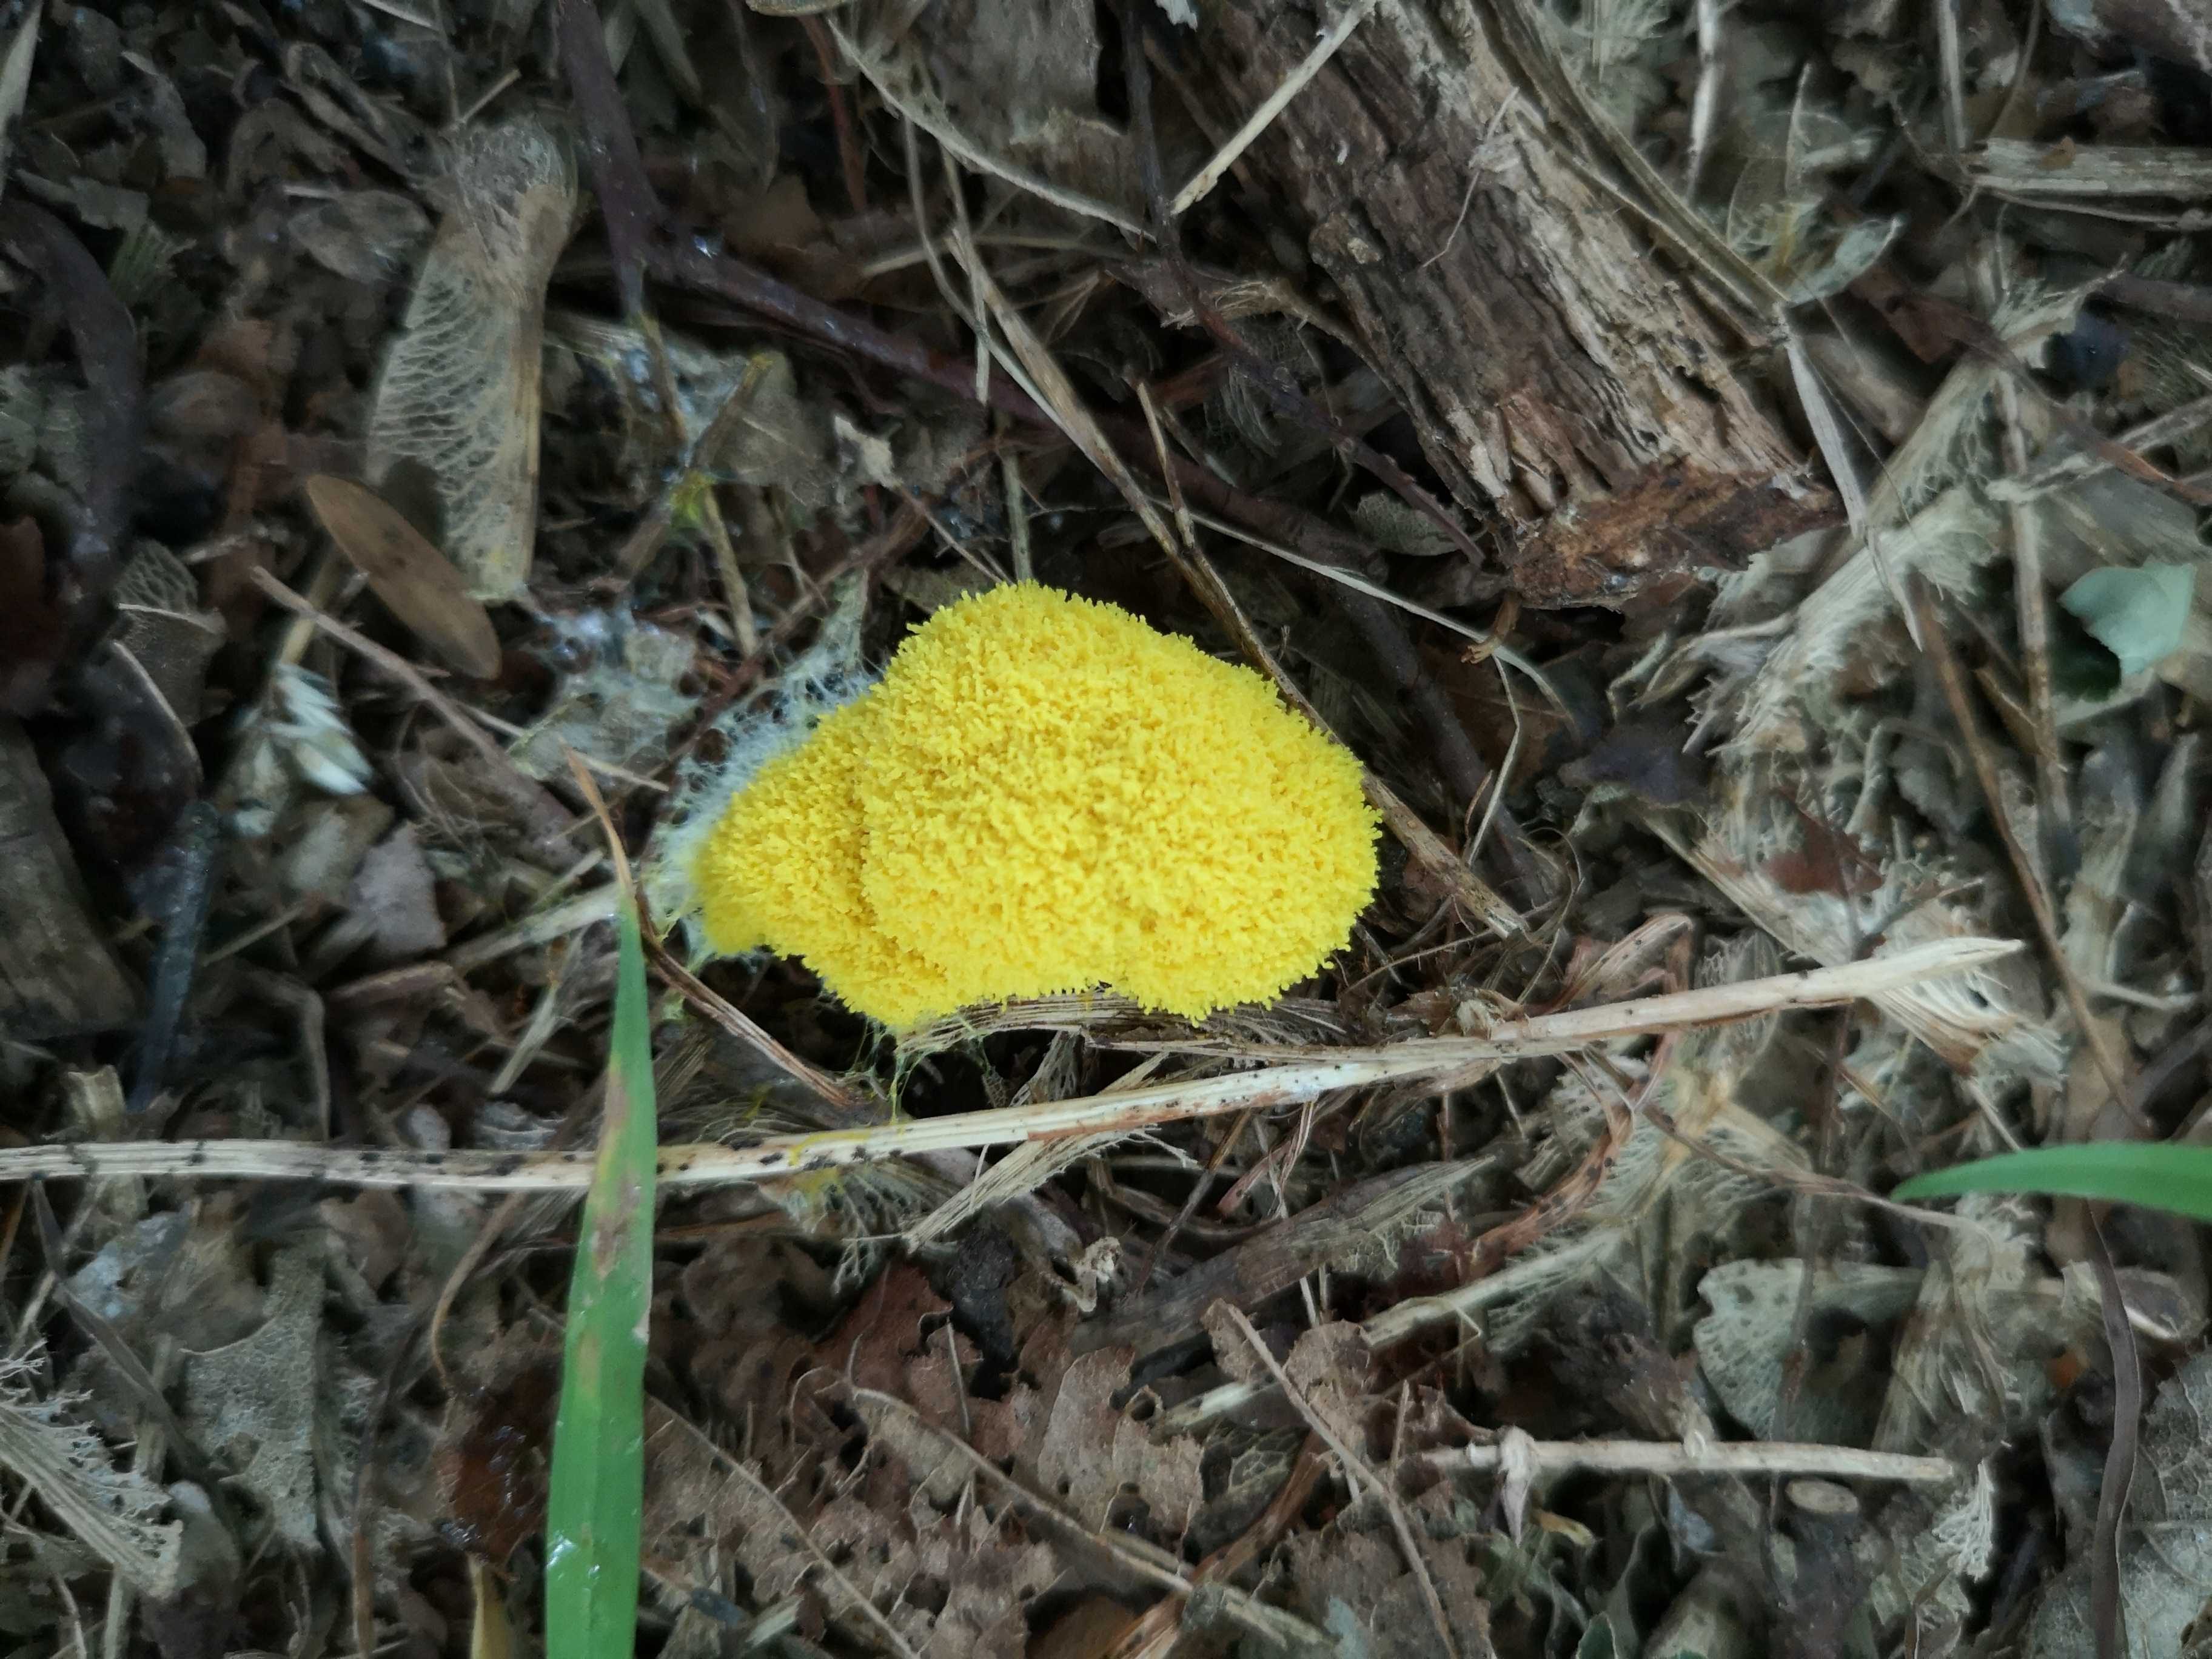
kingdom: Protozoa
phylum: Mycetozoa
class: Myxomycetes
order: Physarales
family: Physaraceae
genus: Fuligo
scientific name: Fuligo septica
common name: gul troldsmør
